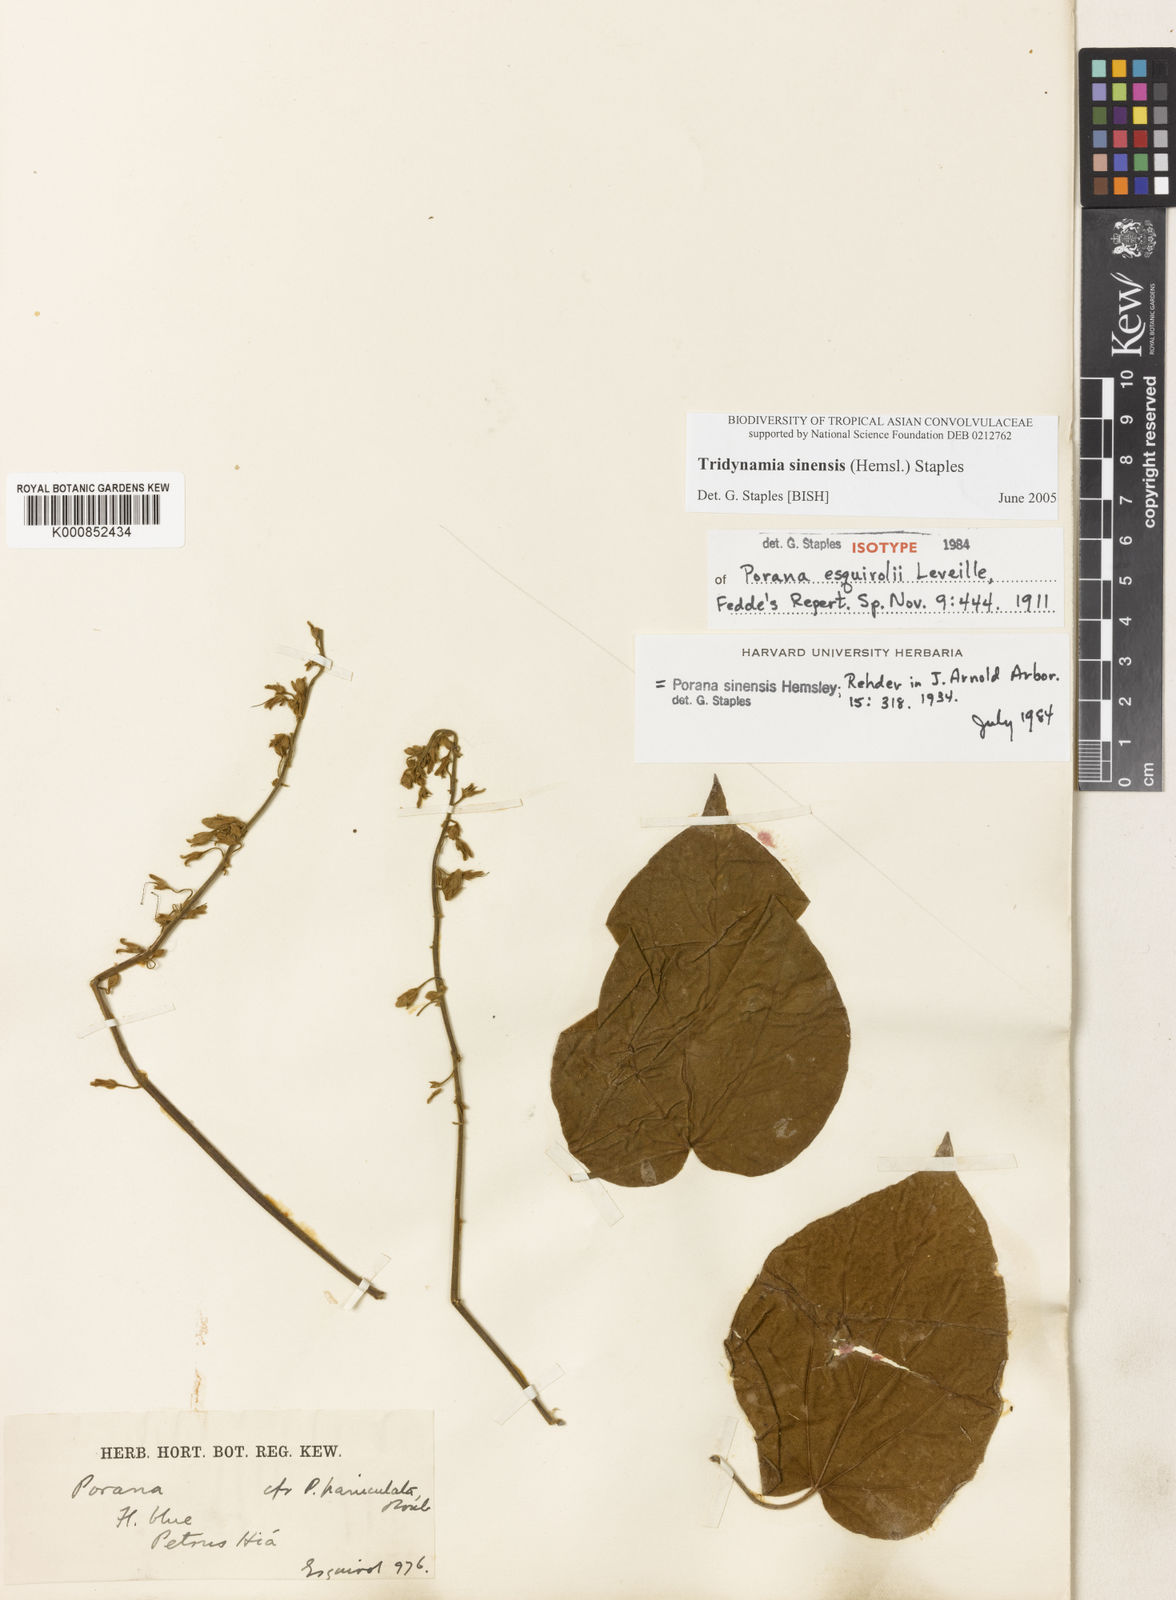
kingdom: Plantae
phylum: Tracheophyta
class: Magnoliopsida
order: Solanales
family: Convolvulaceae
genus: Tridynamia
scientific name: Tridynamia sinensis
